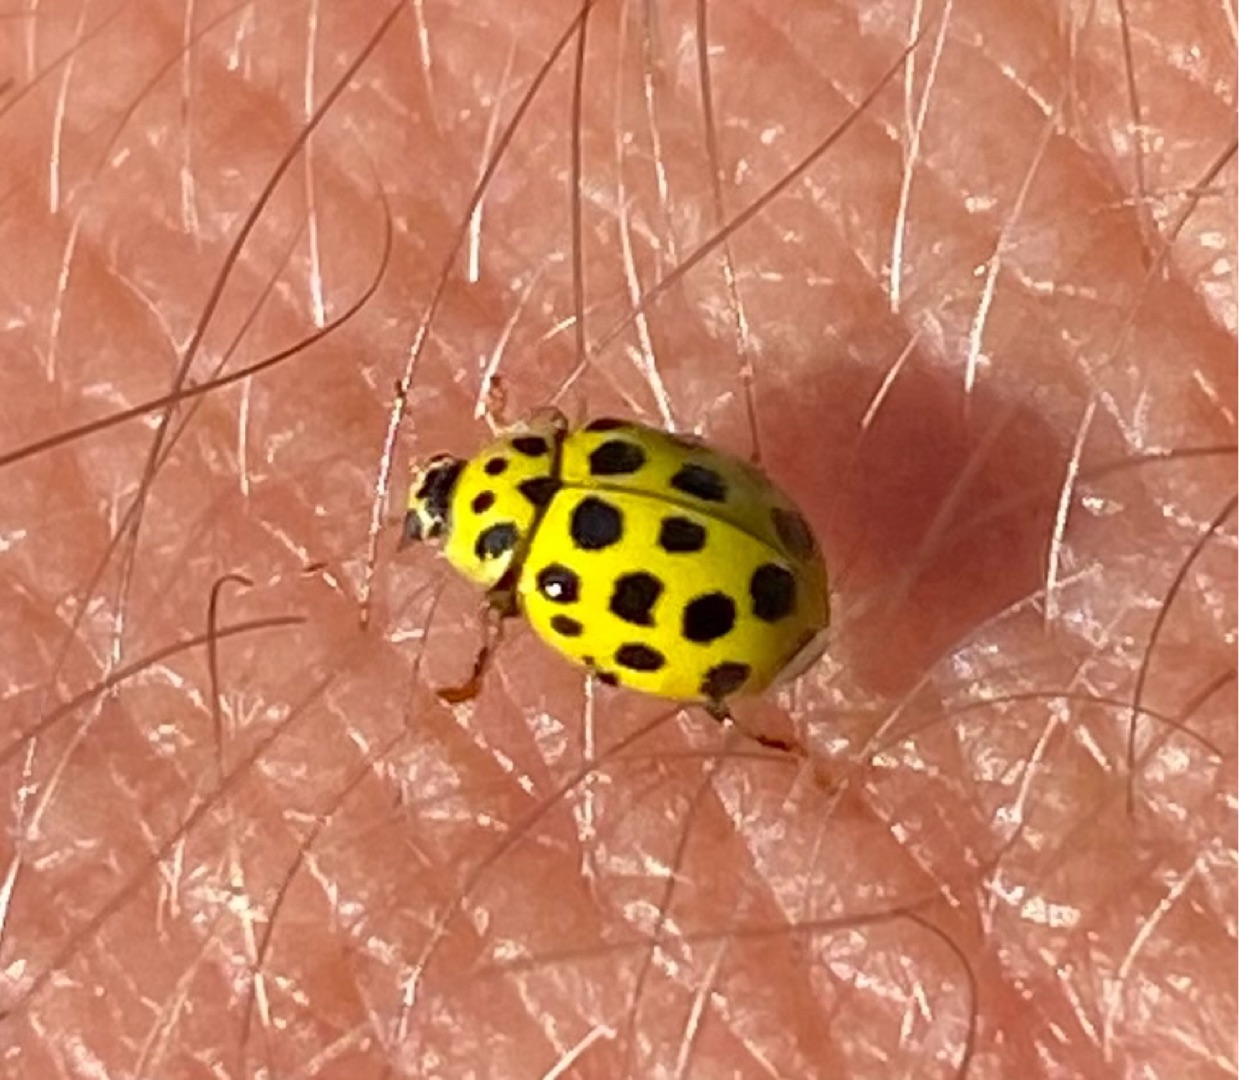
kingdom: Animalia
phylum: Arthropoda
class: Insecta
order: Coleoptera
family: Coccinellidae
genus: Psyllobora
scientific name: Psyllobora vigintiduopunctata
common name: Toogtyveplettet mariehøne
